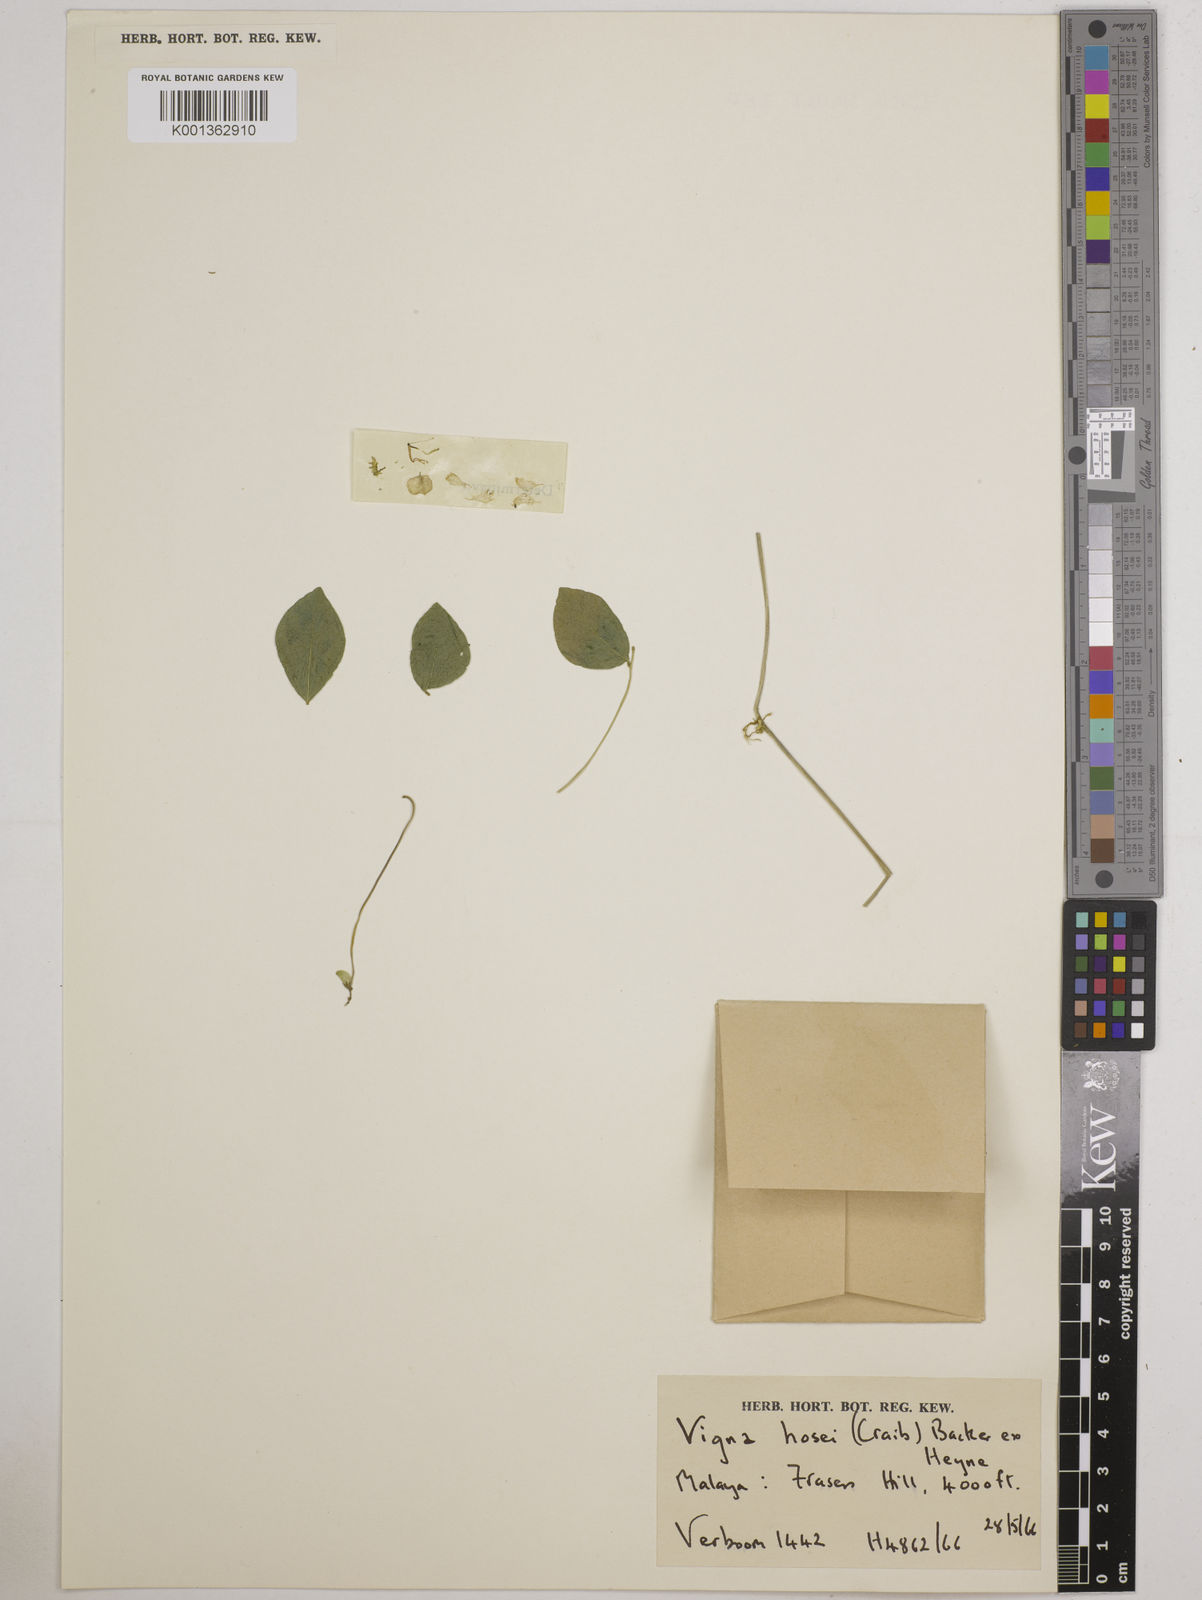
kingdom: Plantae
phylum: Tracheophyta
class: Magnoliopsida
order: Fabales
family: Fabaceae
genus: Vigna
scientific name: Vigna hosei
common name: Sarawak-bean
